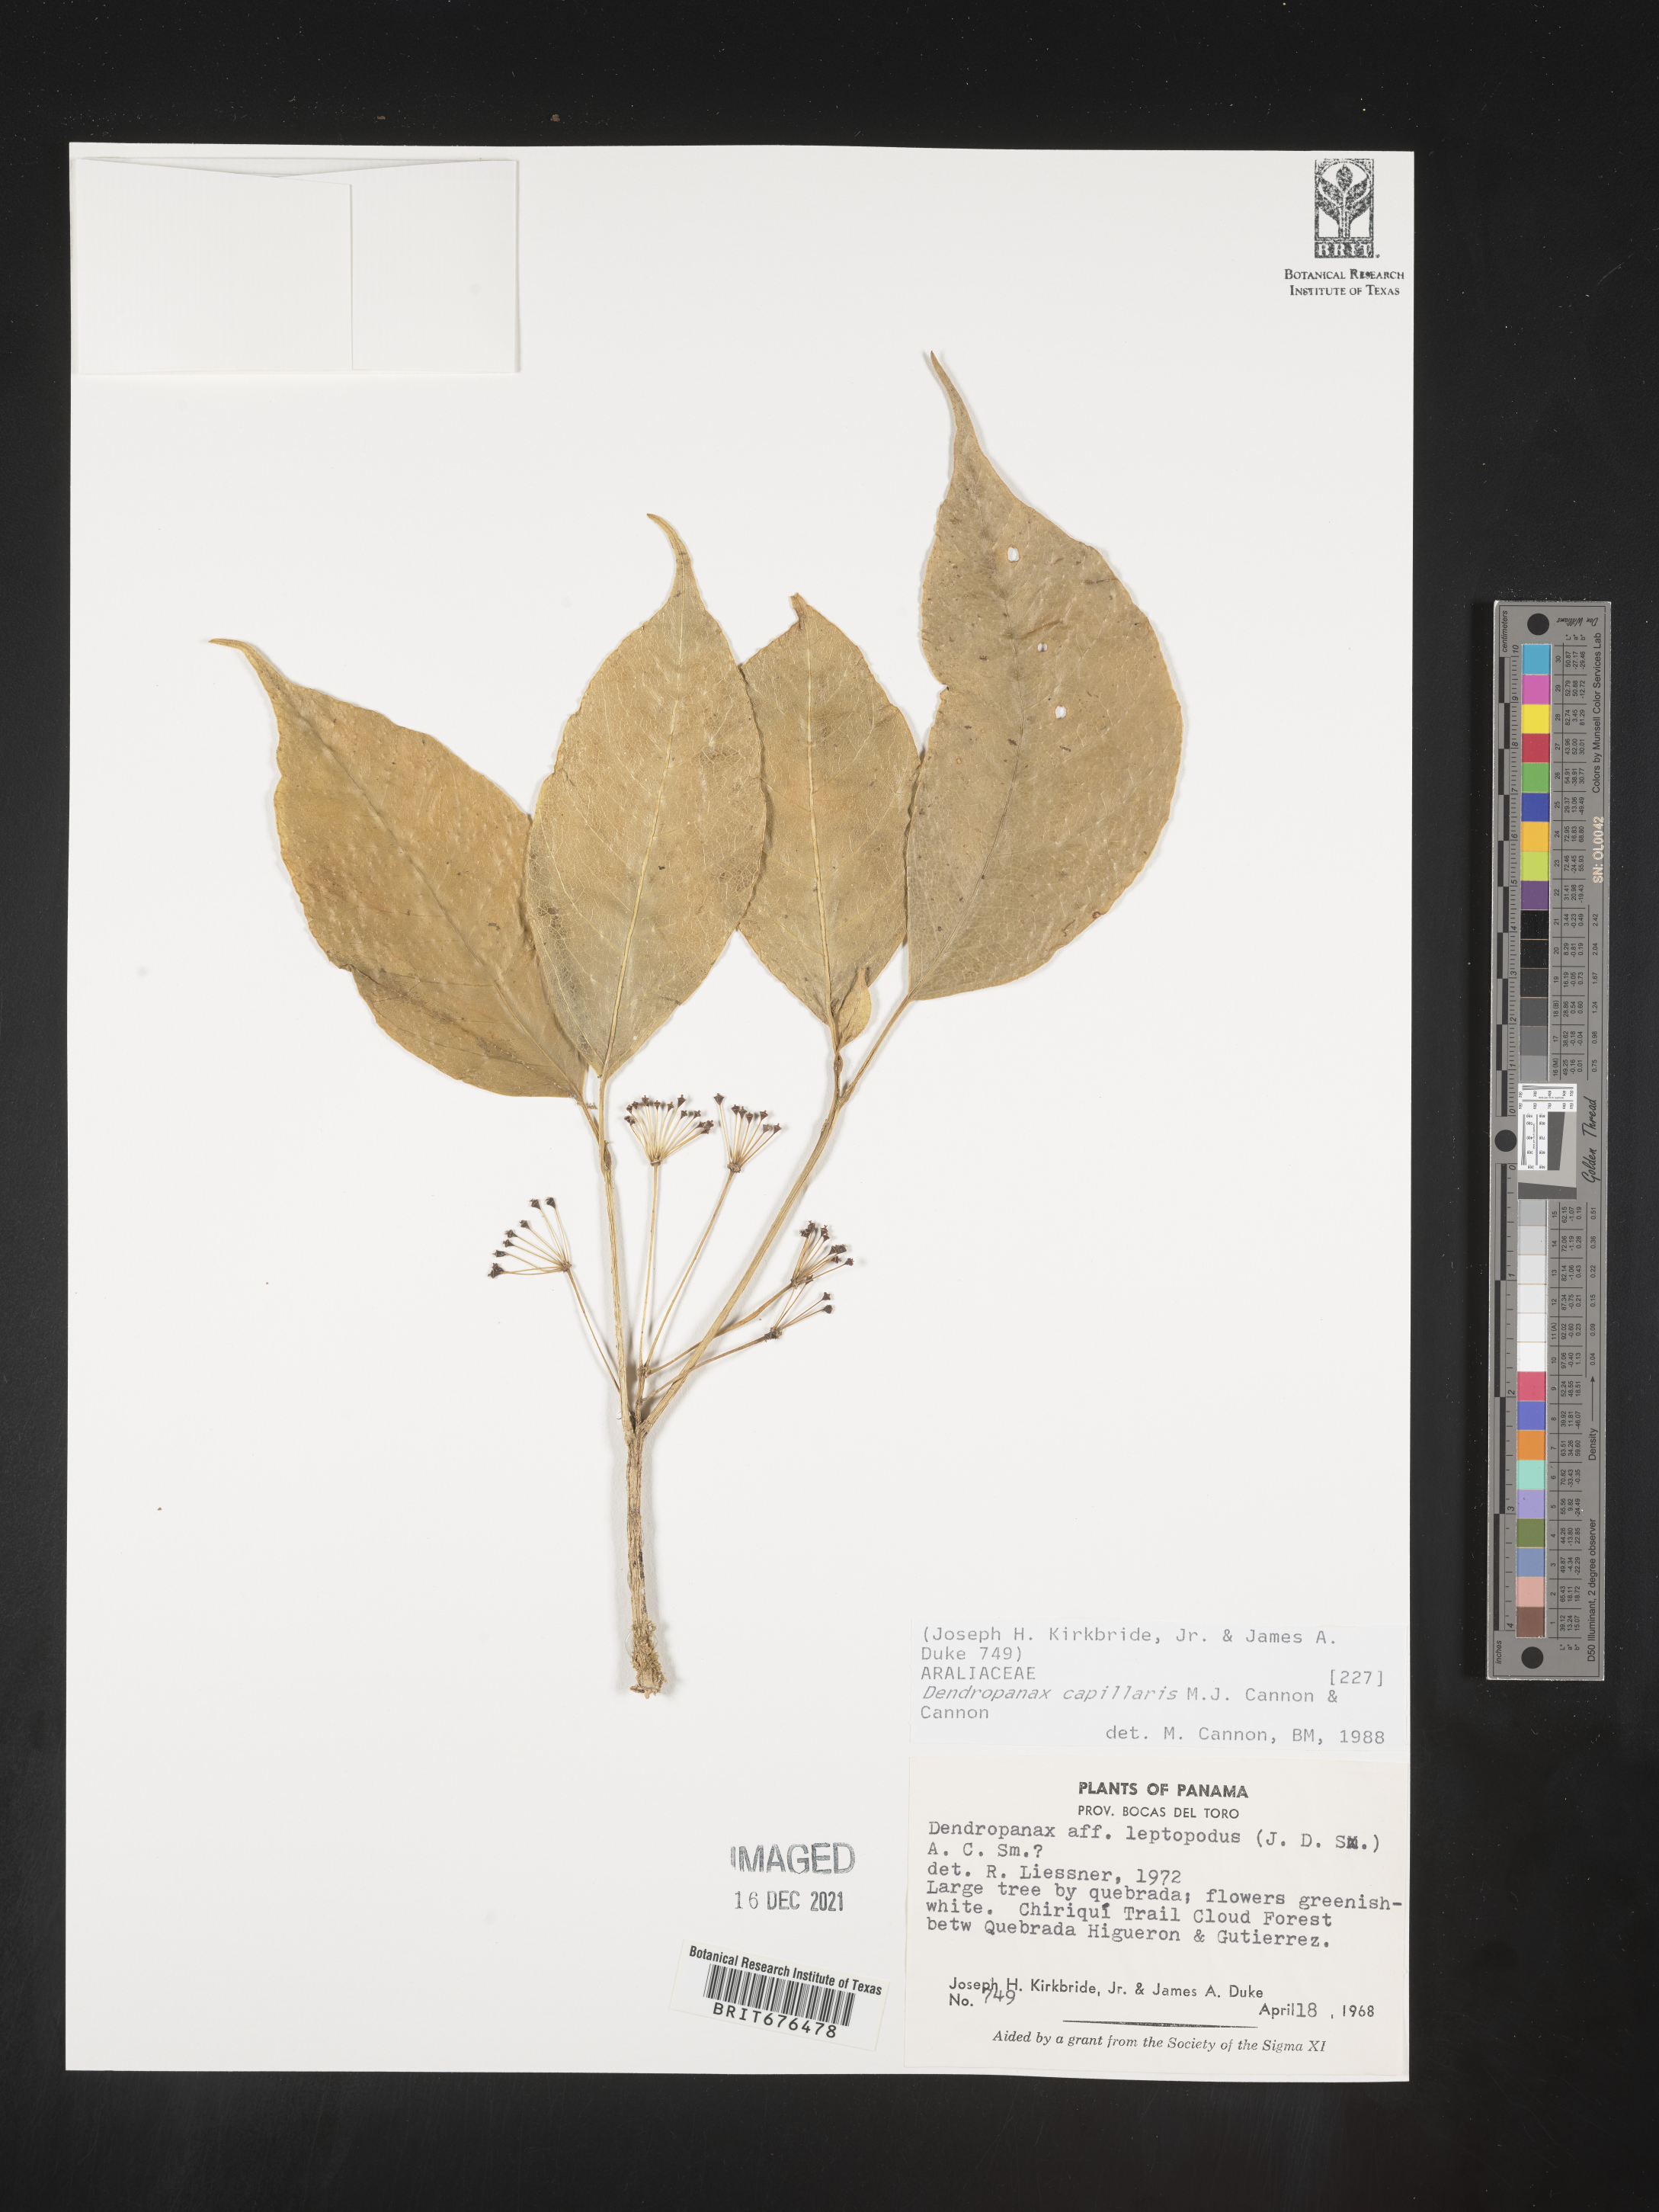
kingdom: Plantae
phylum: Tracheophyta
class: Magnoliopsida
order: Apiales
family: Araliaceae
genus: Dendropanax
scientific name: Dendropanax
